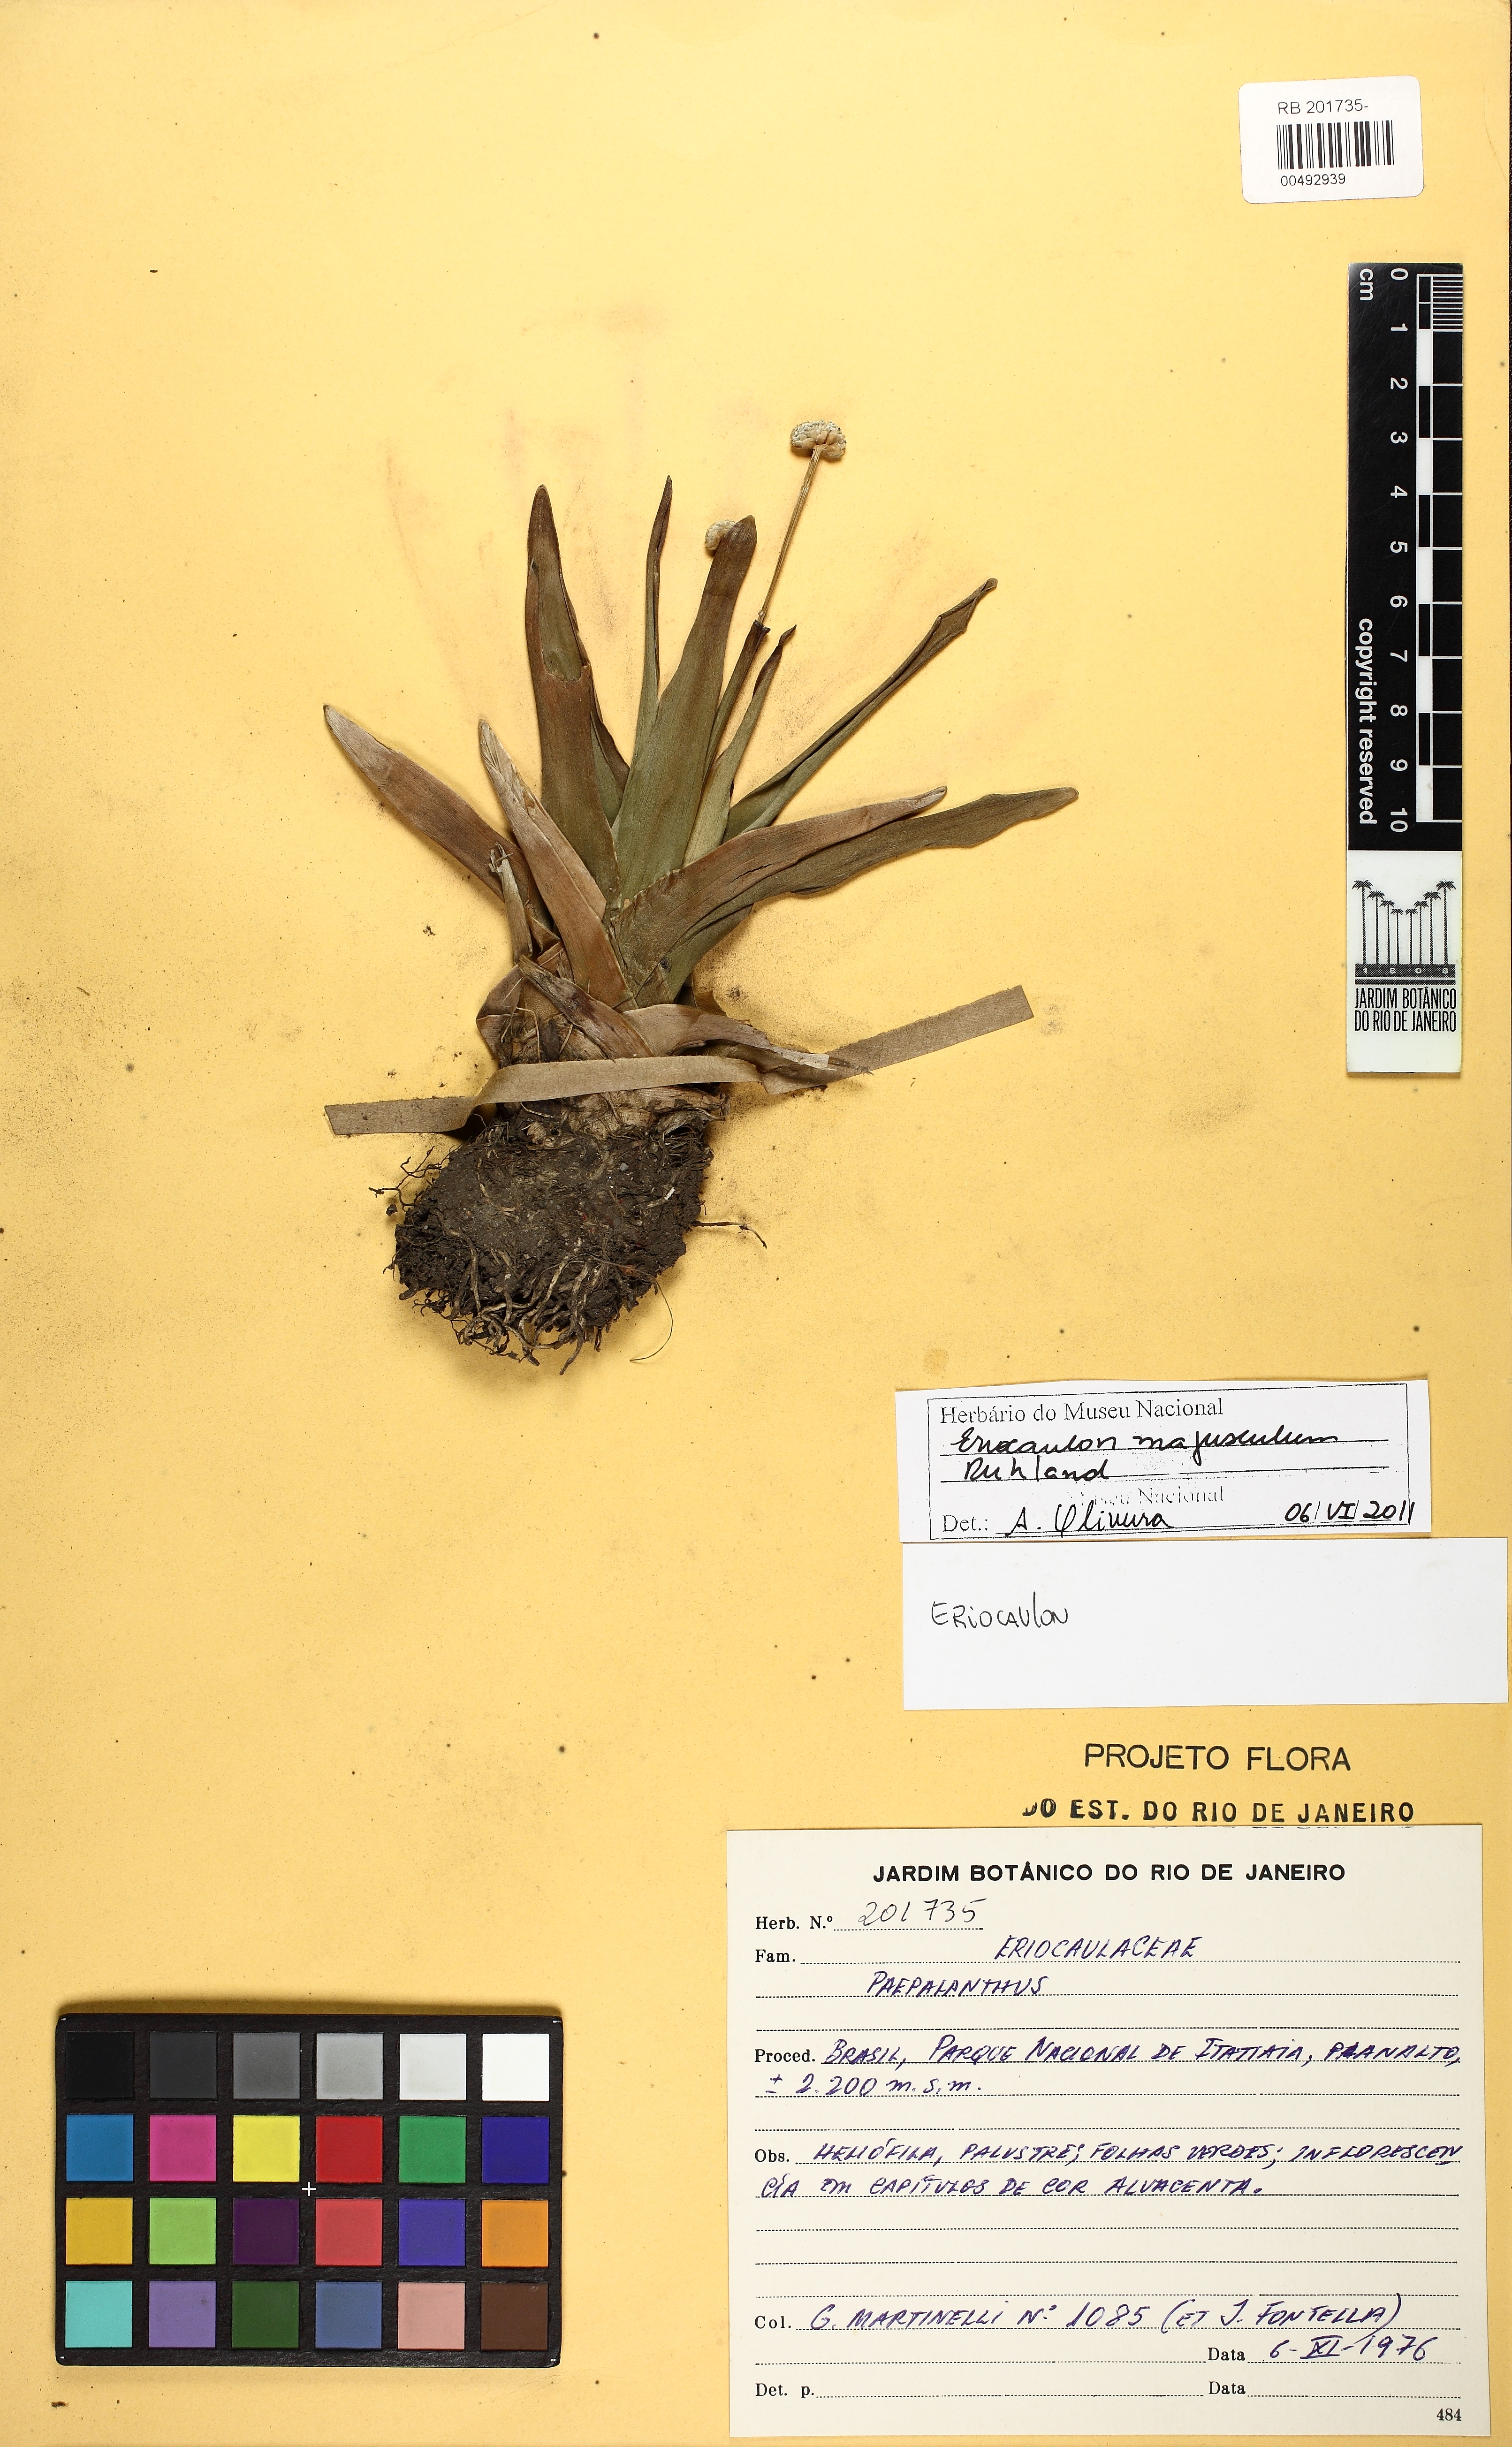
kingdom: Plantae
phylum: Tracheophyta
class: Liliopsida
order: Poales
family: Eriocaulaceae
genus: Eriocaulon
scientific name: Eriocaulon majusculum
